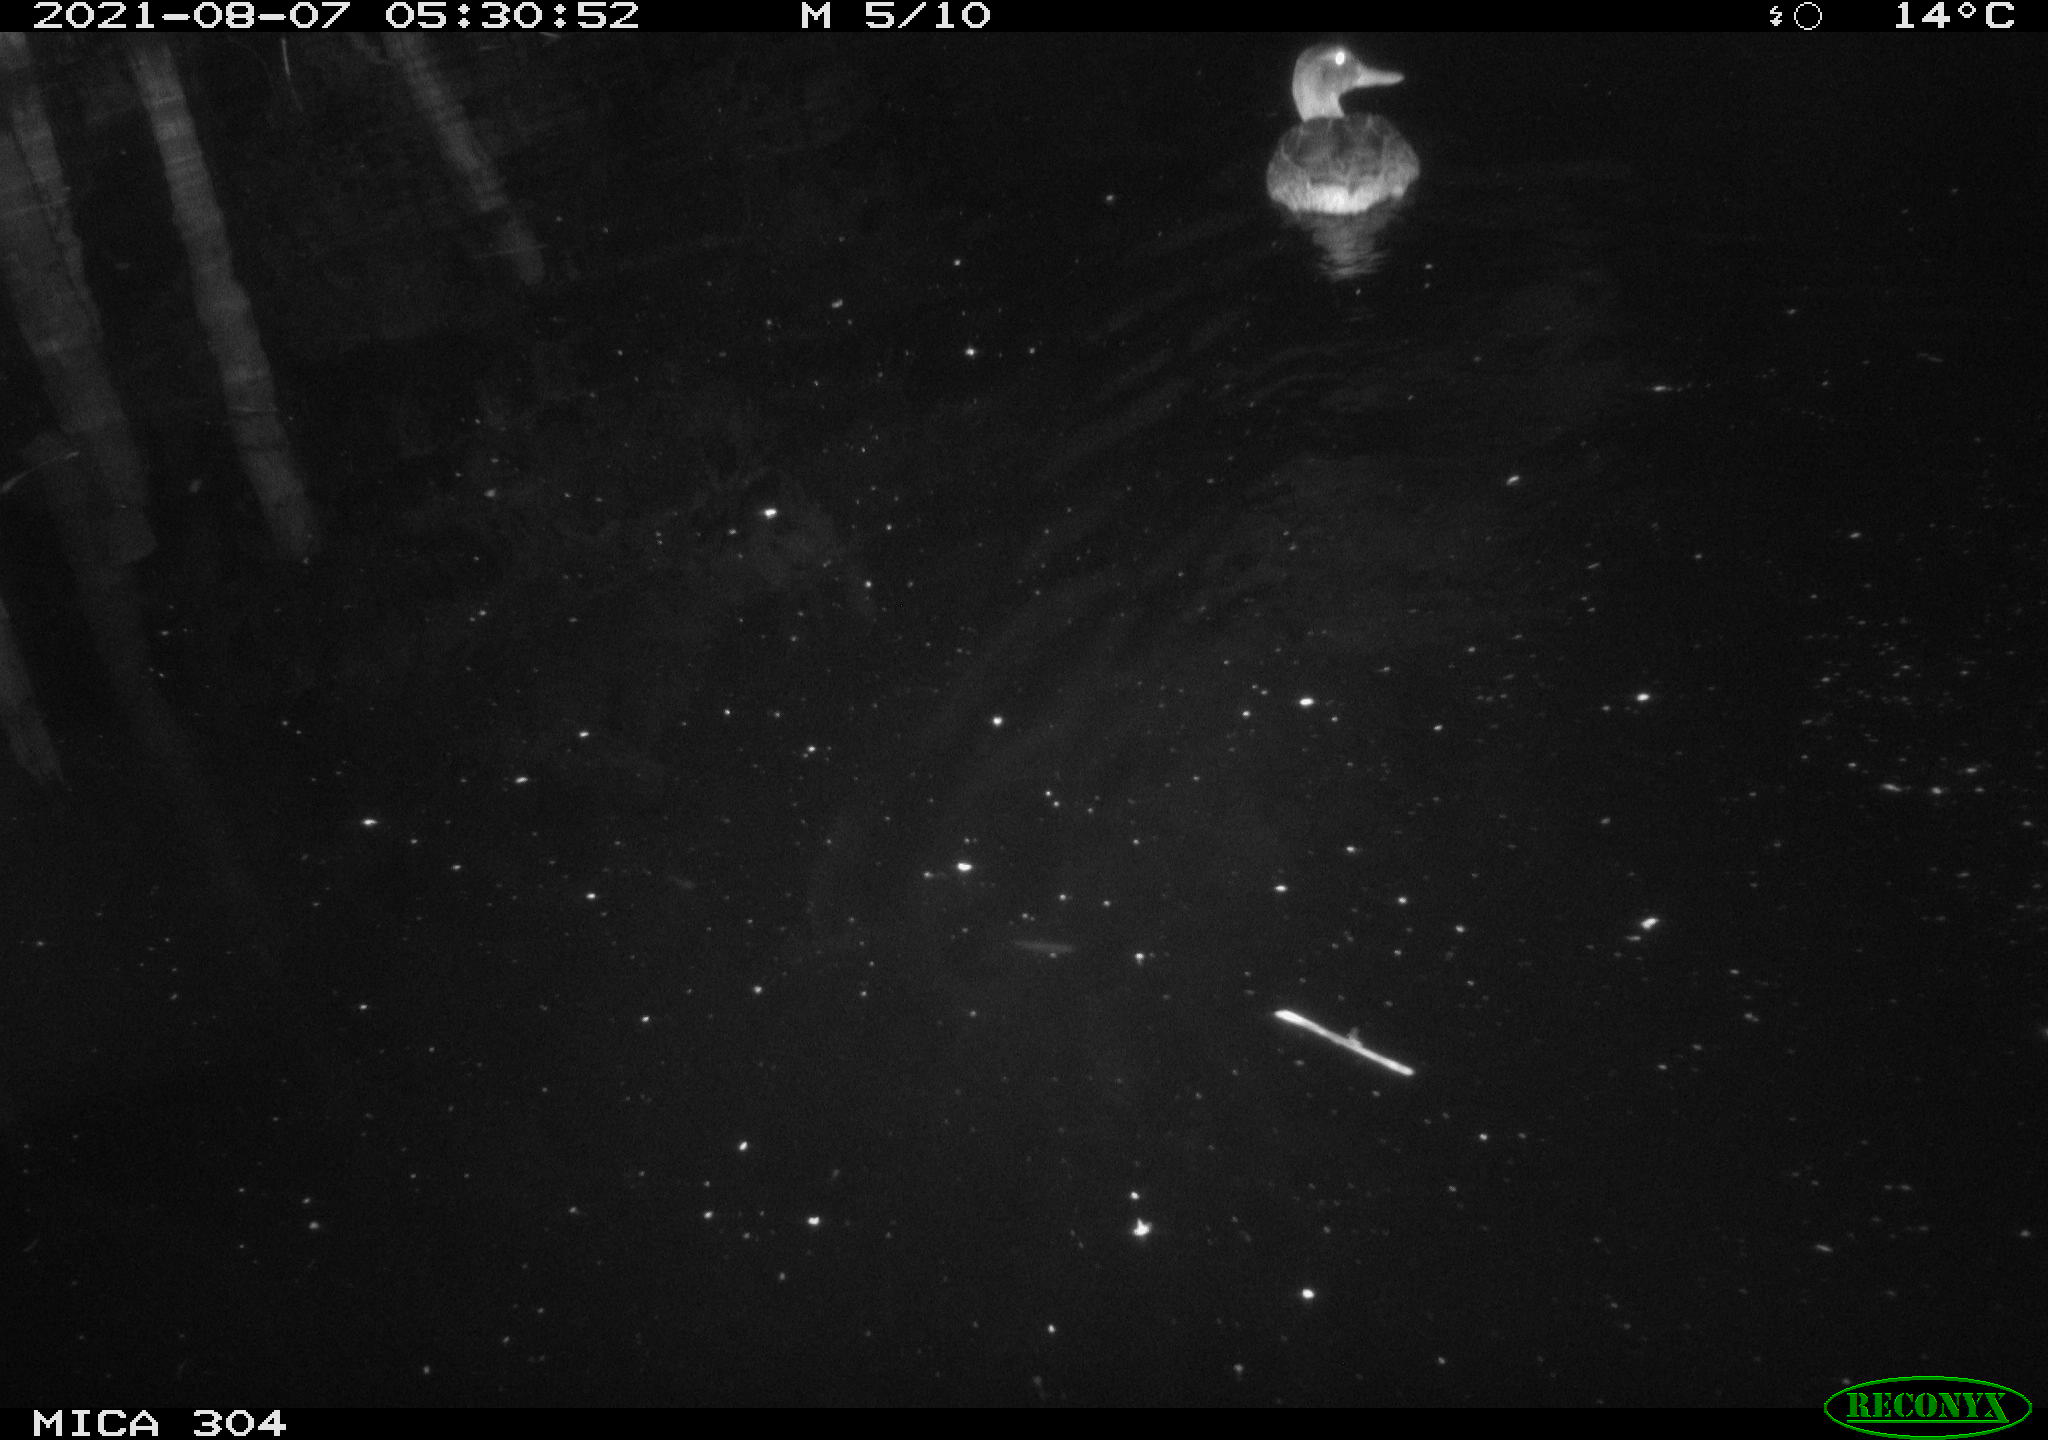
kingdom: Animalia
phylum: Chordata
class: Aves
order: Anseriformes
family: Anatidae
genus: Anas
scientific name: Anas platyrhynchos
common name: Mallard
